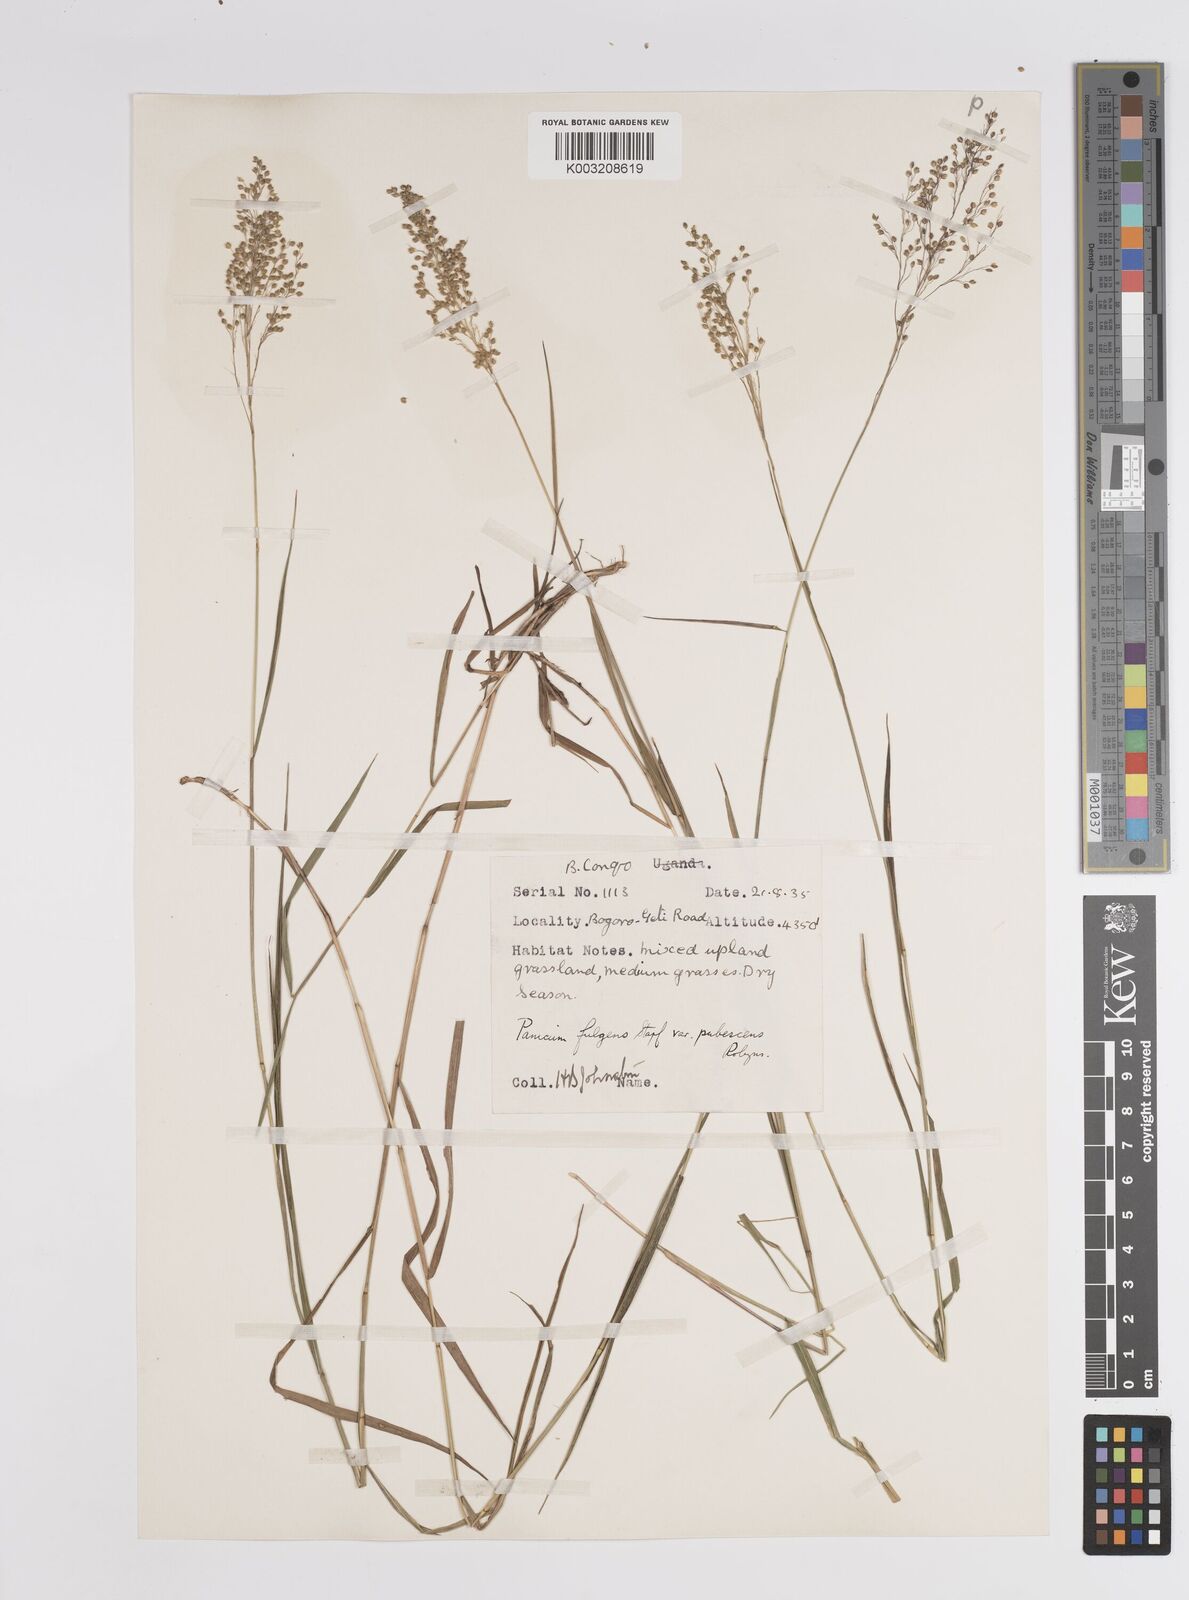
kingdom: Plantae
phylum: Tracheophyta
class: Liliopsida
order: Poales
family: Poaceae
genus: Trichanthecium
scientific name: Trichanthecium nervatum
